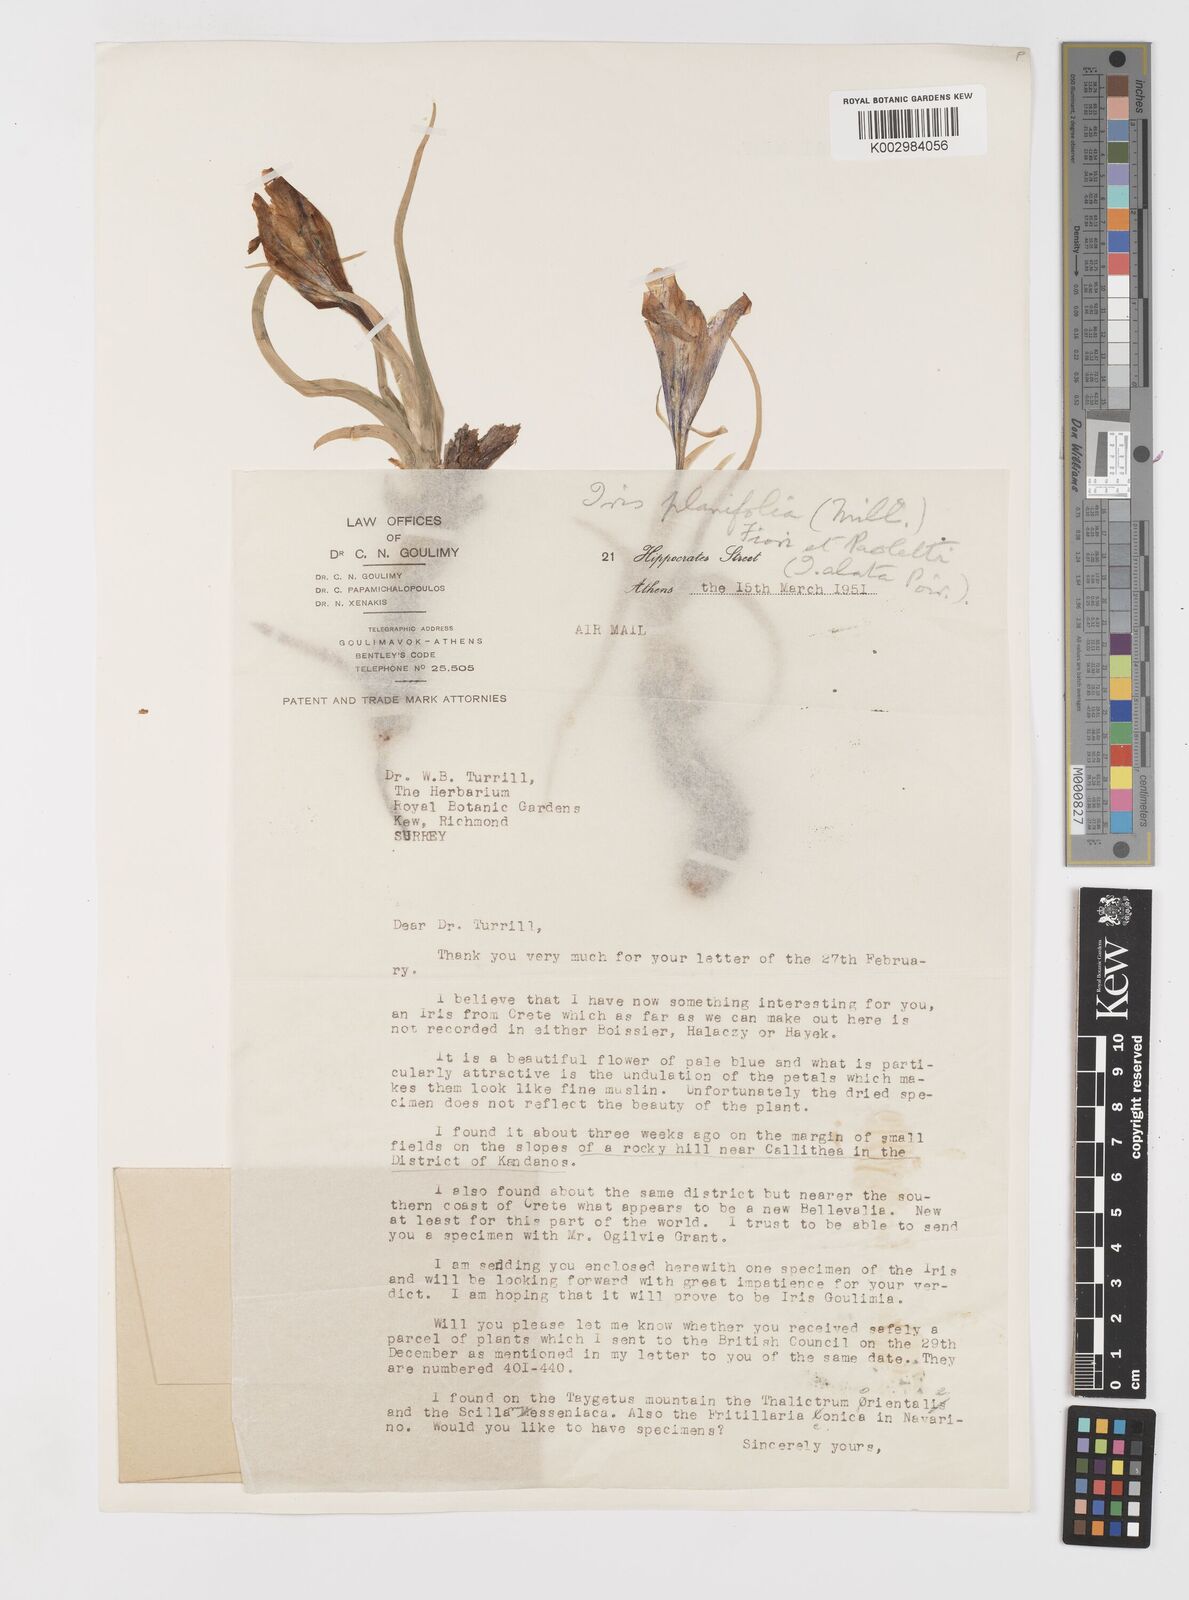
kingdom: Plantae
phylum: Tracheophyta
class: Liliopsida
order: Asparagales
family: Iridaceae
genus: Iris
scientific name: Iris planifolia
